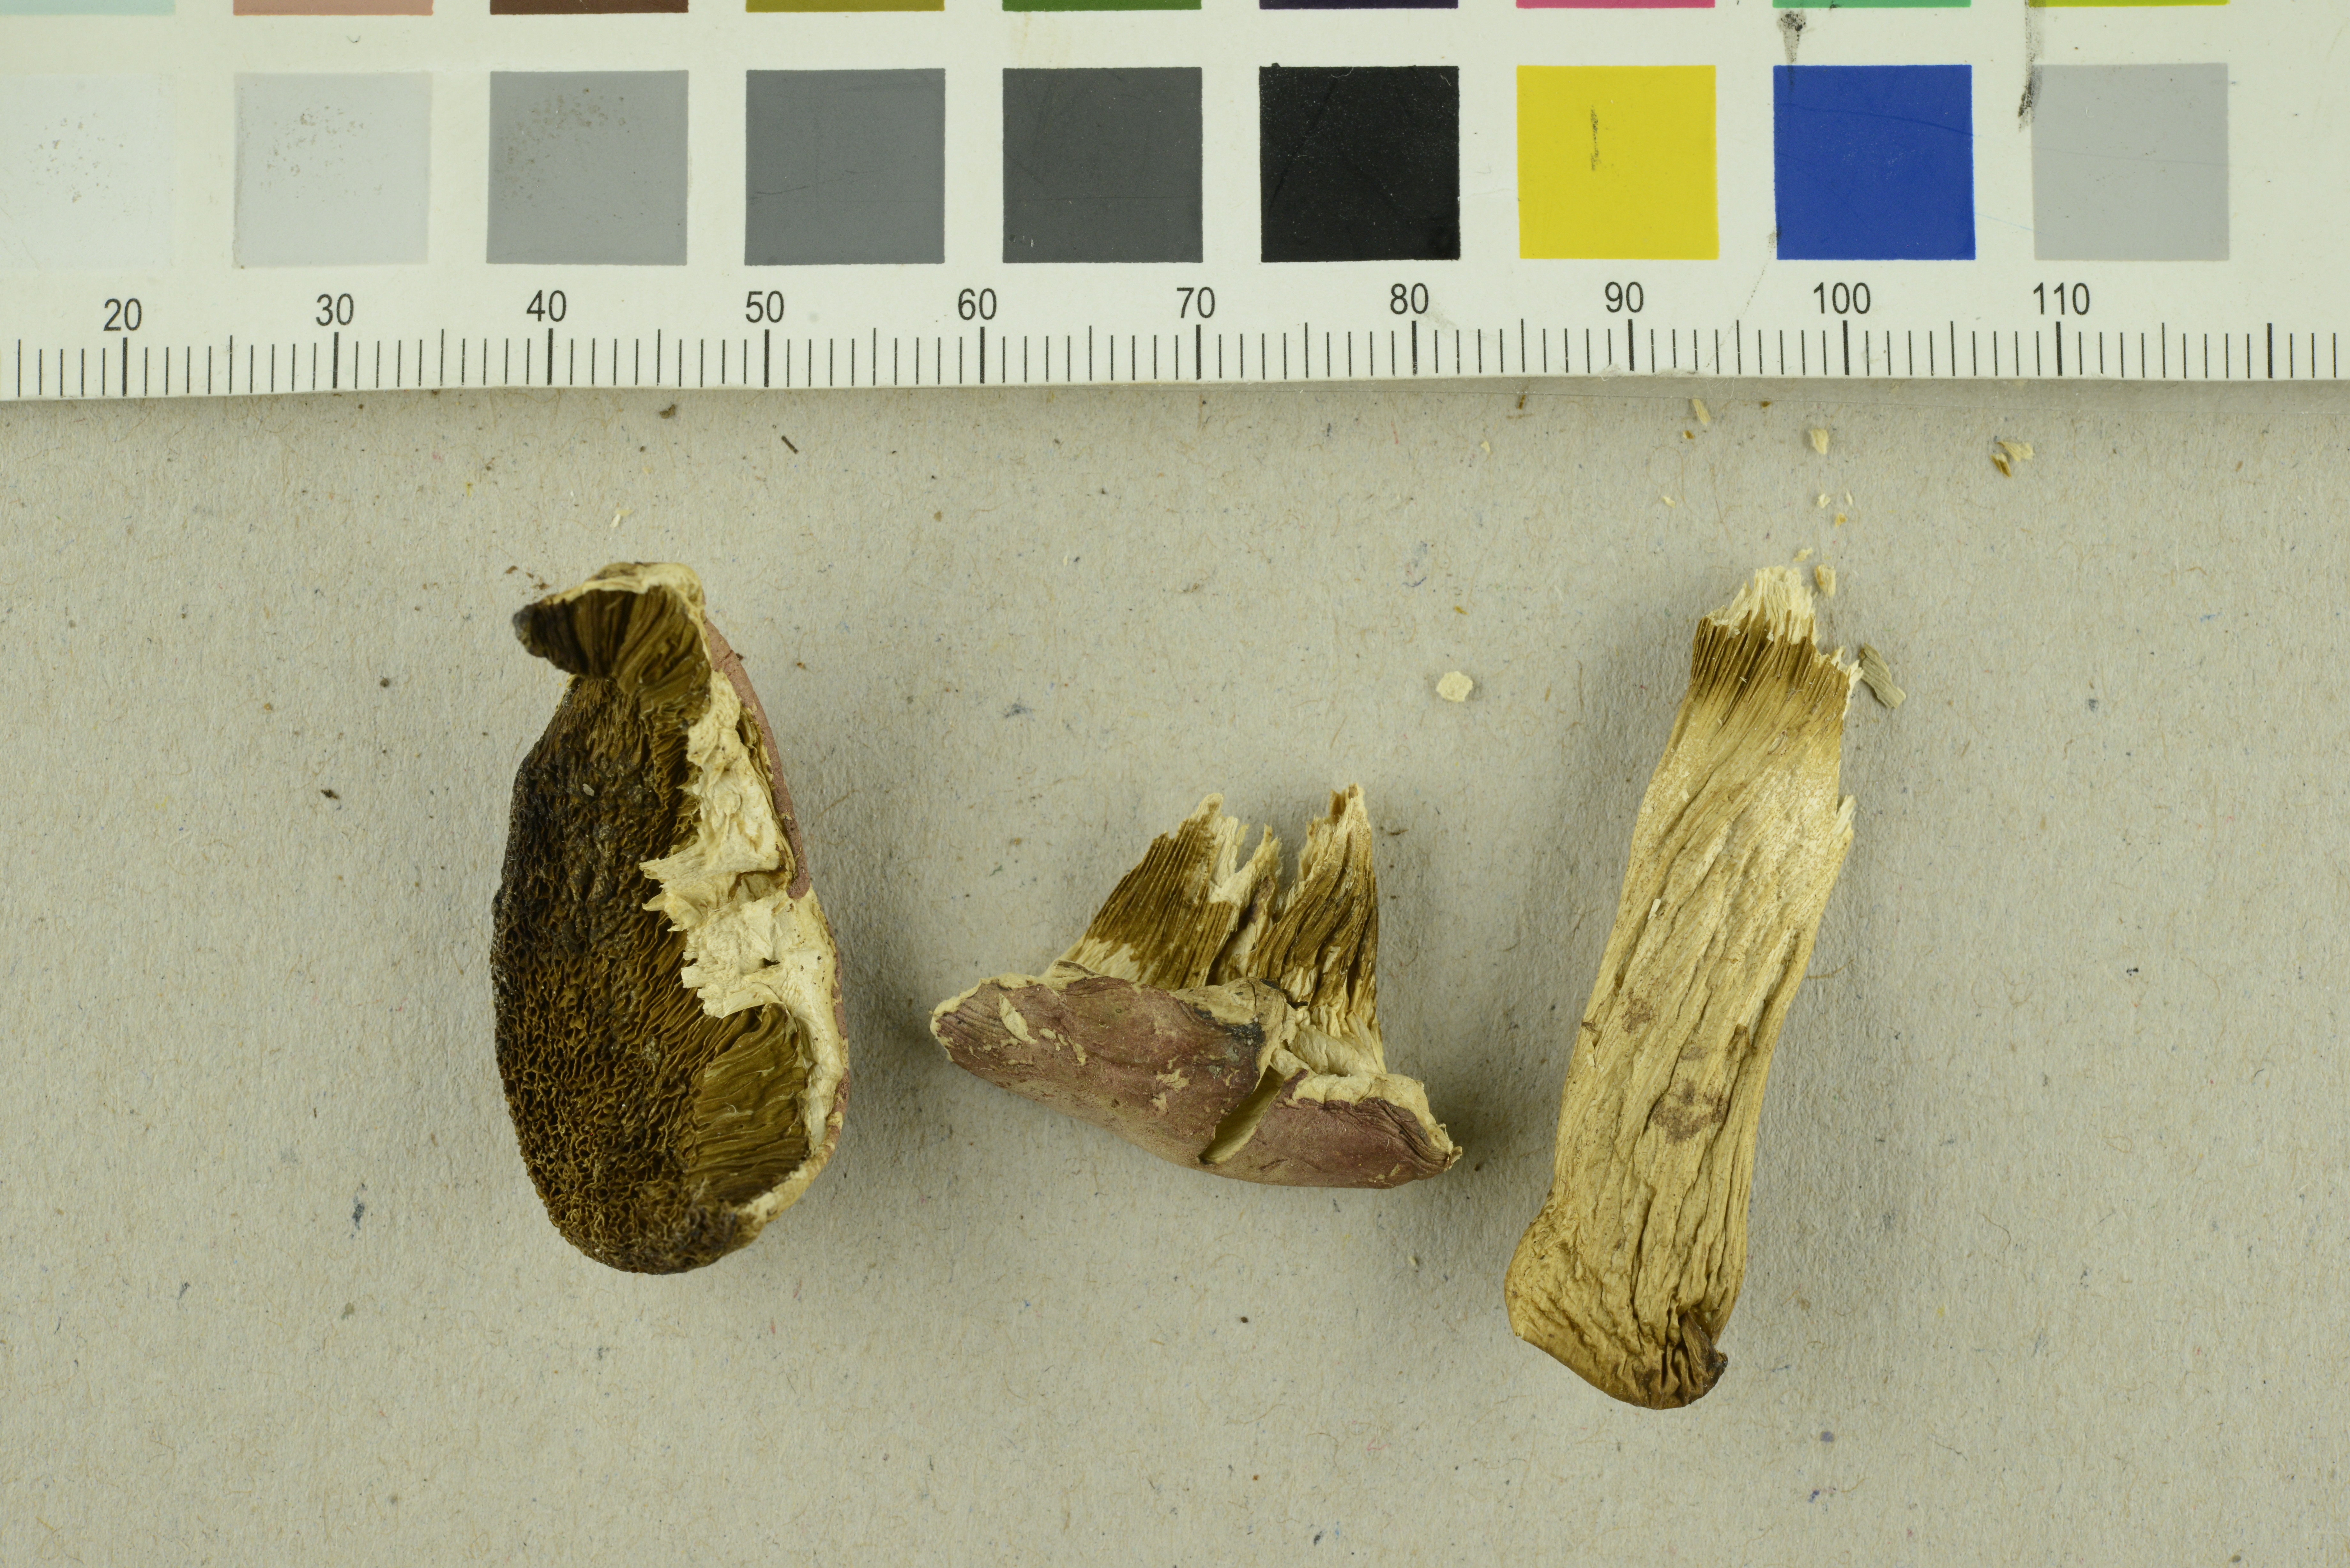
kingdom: Fungi
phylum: Basidiomycota
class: Agaricomycetes
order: Boletales
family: Boletaceae
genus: Hortiboletus
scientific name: Hortiboletus bubalinus
